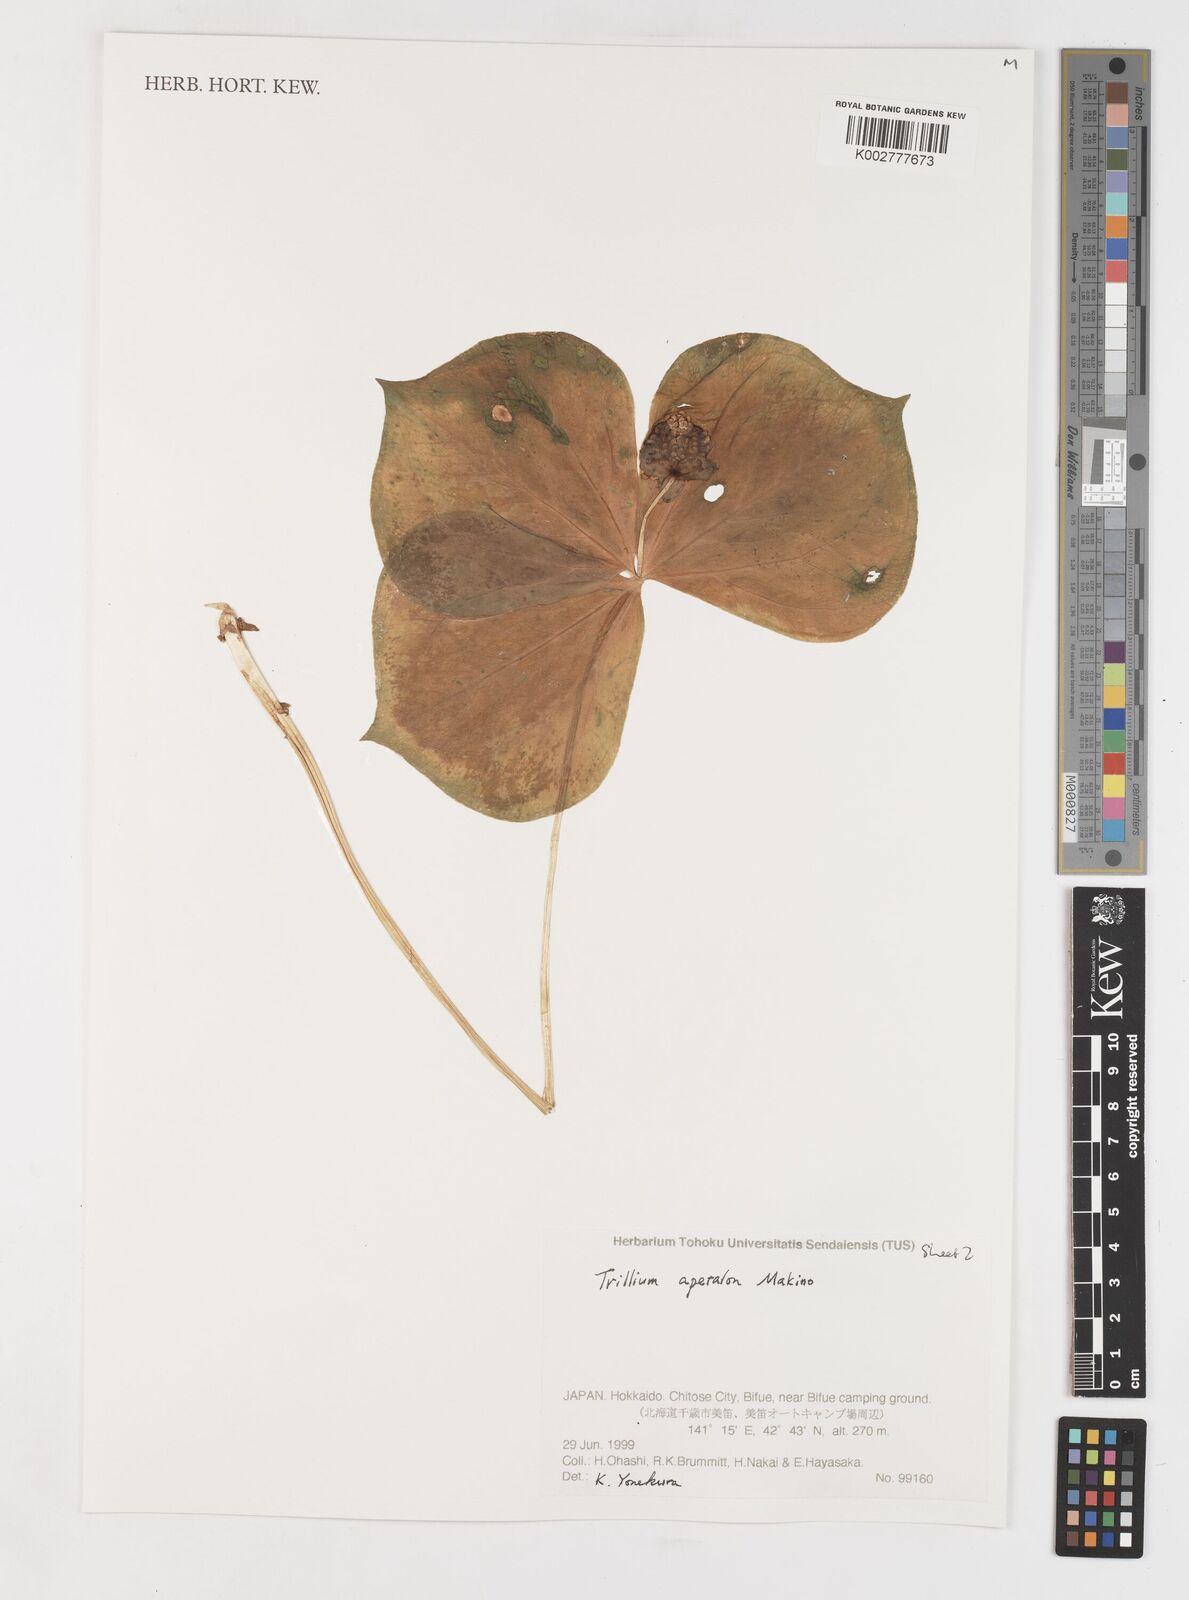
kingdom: Plantae
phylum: Tracheophyta
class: Liliopsida
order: Liliales
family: Melanthiaceae
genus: Trillium
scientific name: Trillium smallii
